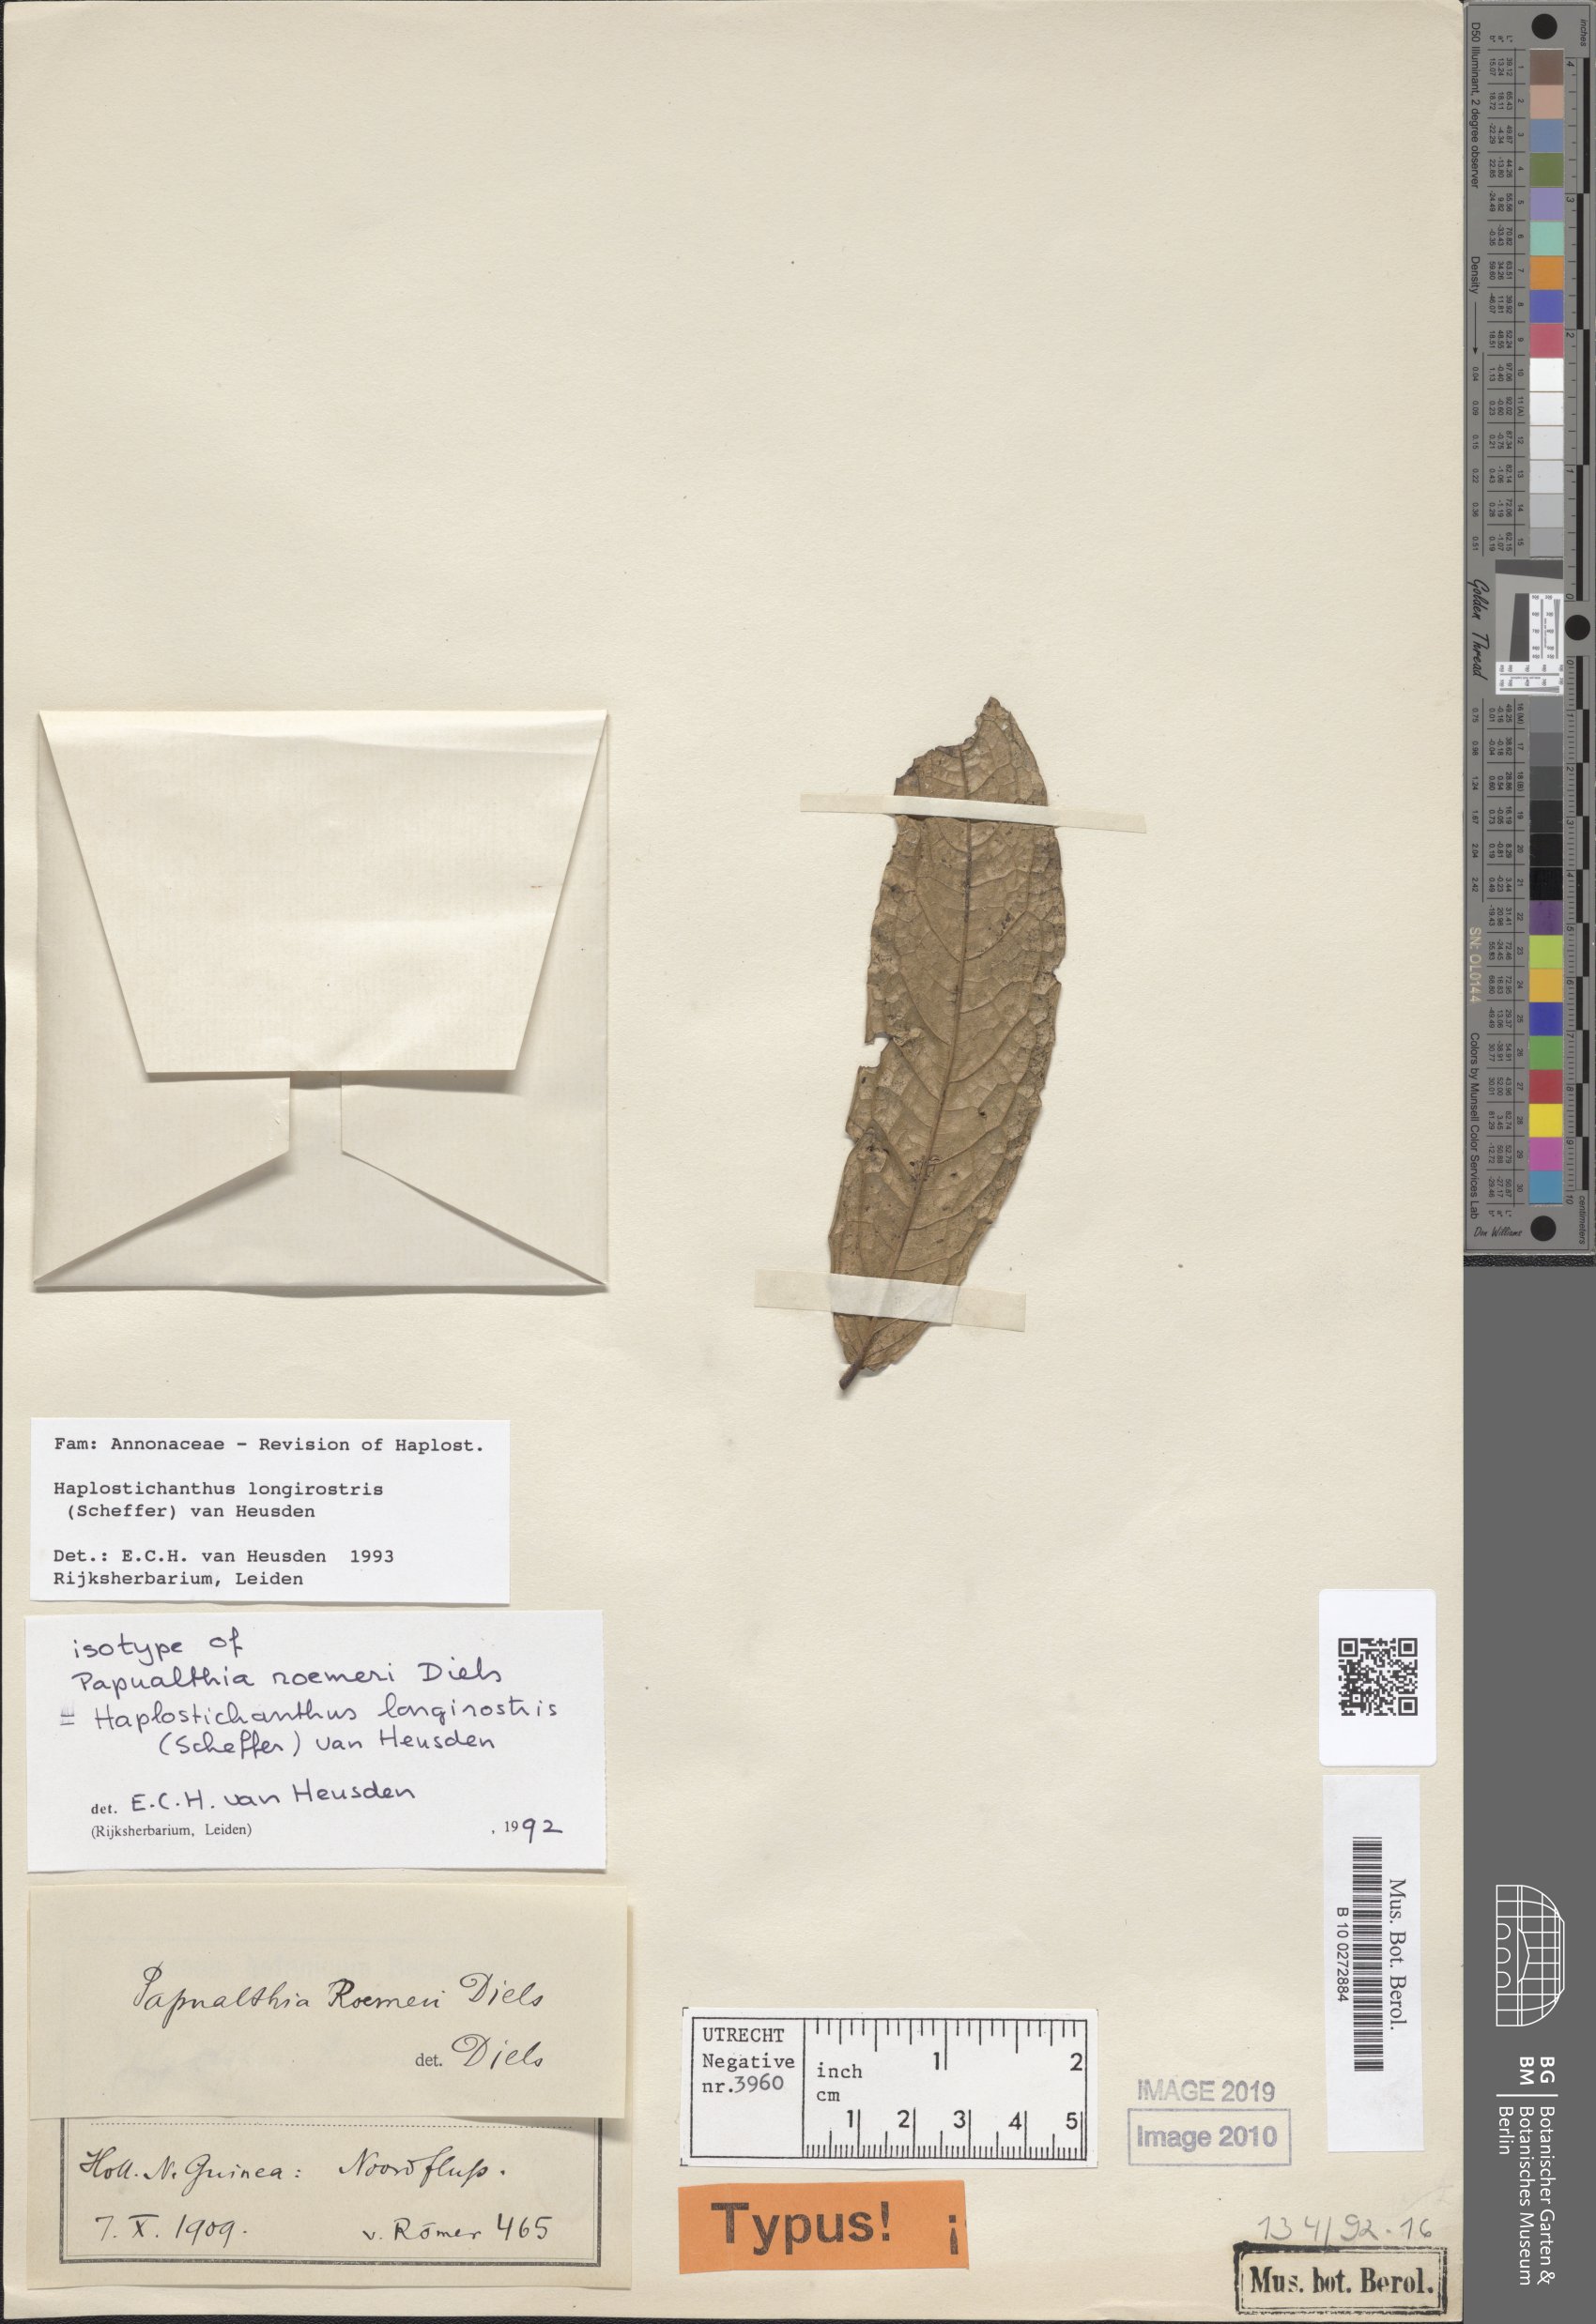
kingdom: Plantae
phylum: Tracheophyta
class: Magnoliopsida
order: Magnoliales
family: Annonaceae
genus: Haplostichanthus
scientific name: Haplostichanthus longirostris
